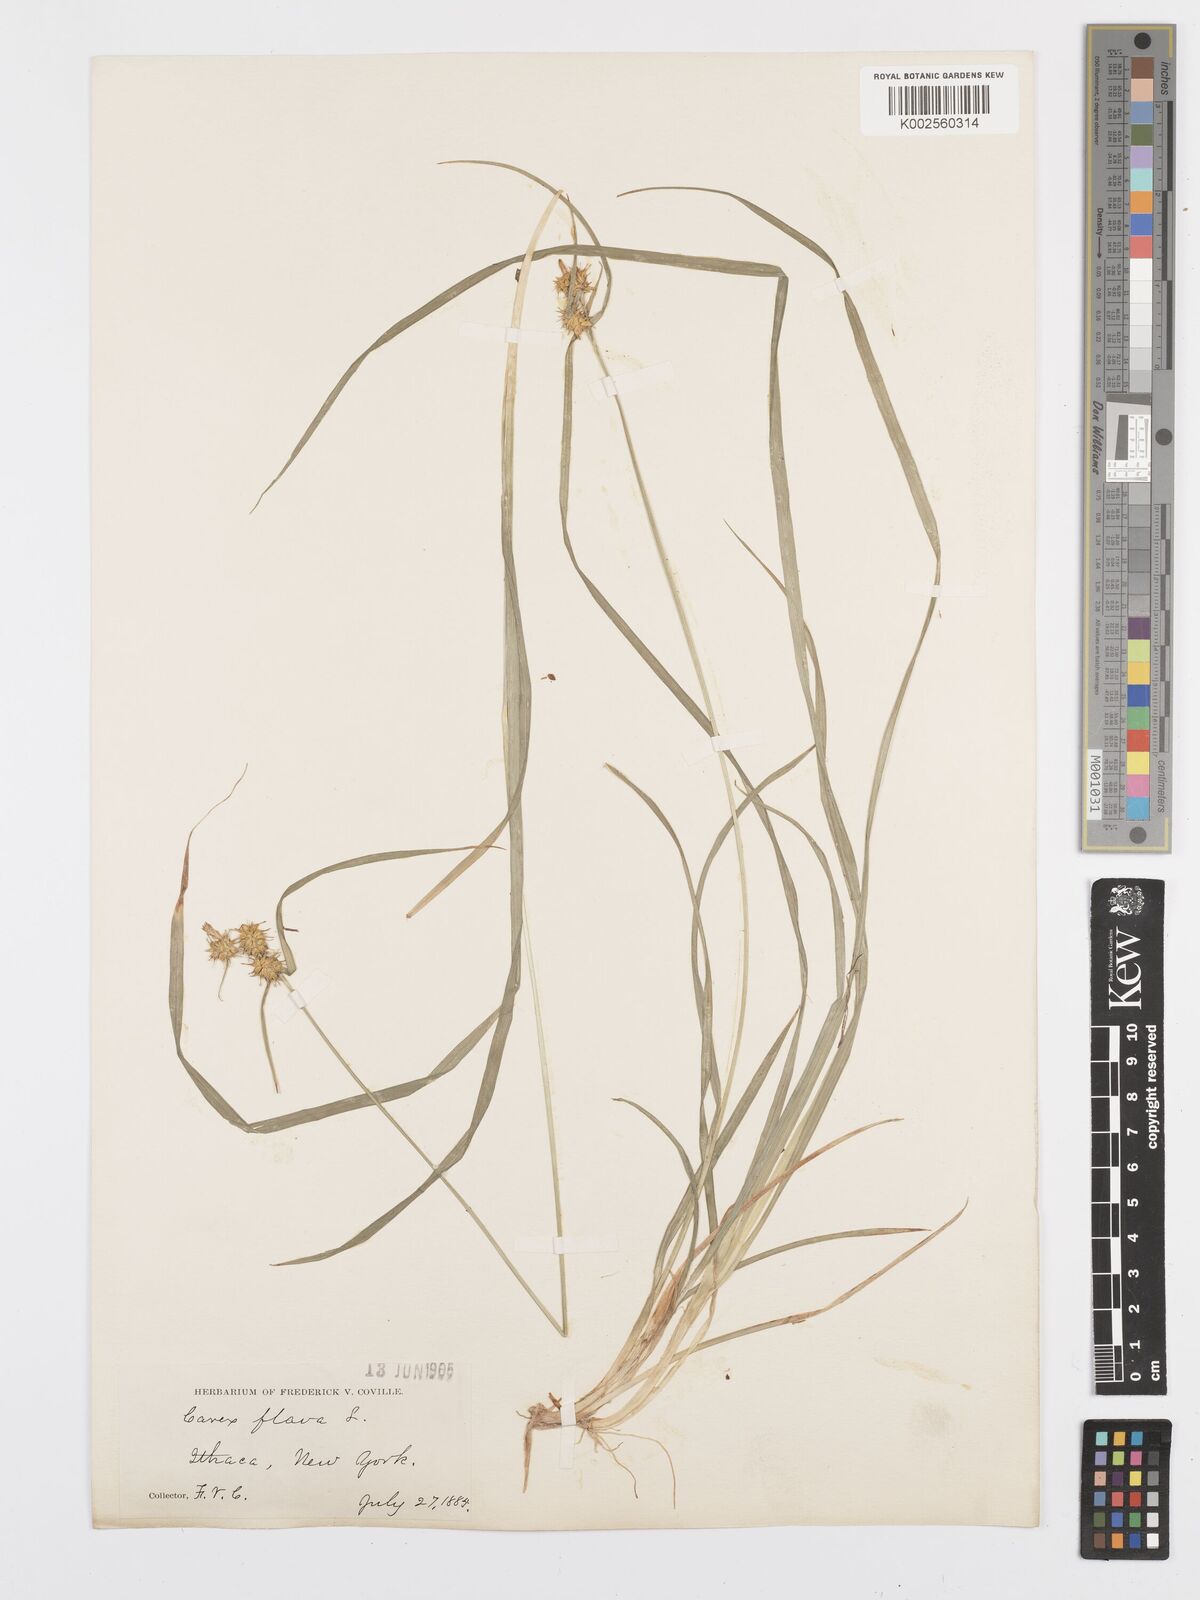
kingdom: Plantae
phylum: Tracheophyta
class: Liliopsida
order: Poales
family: Cyperaceae
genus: Carex
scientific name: Carex flava
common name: Large yellow-sedge
